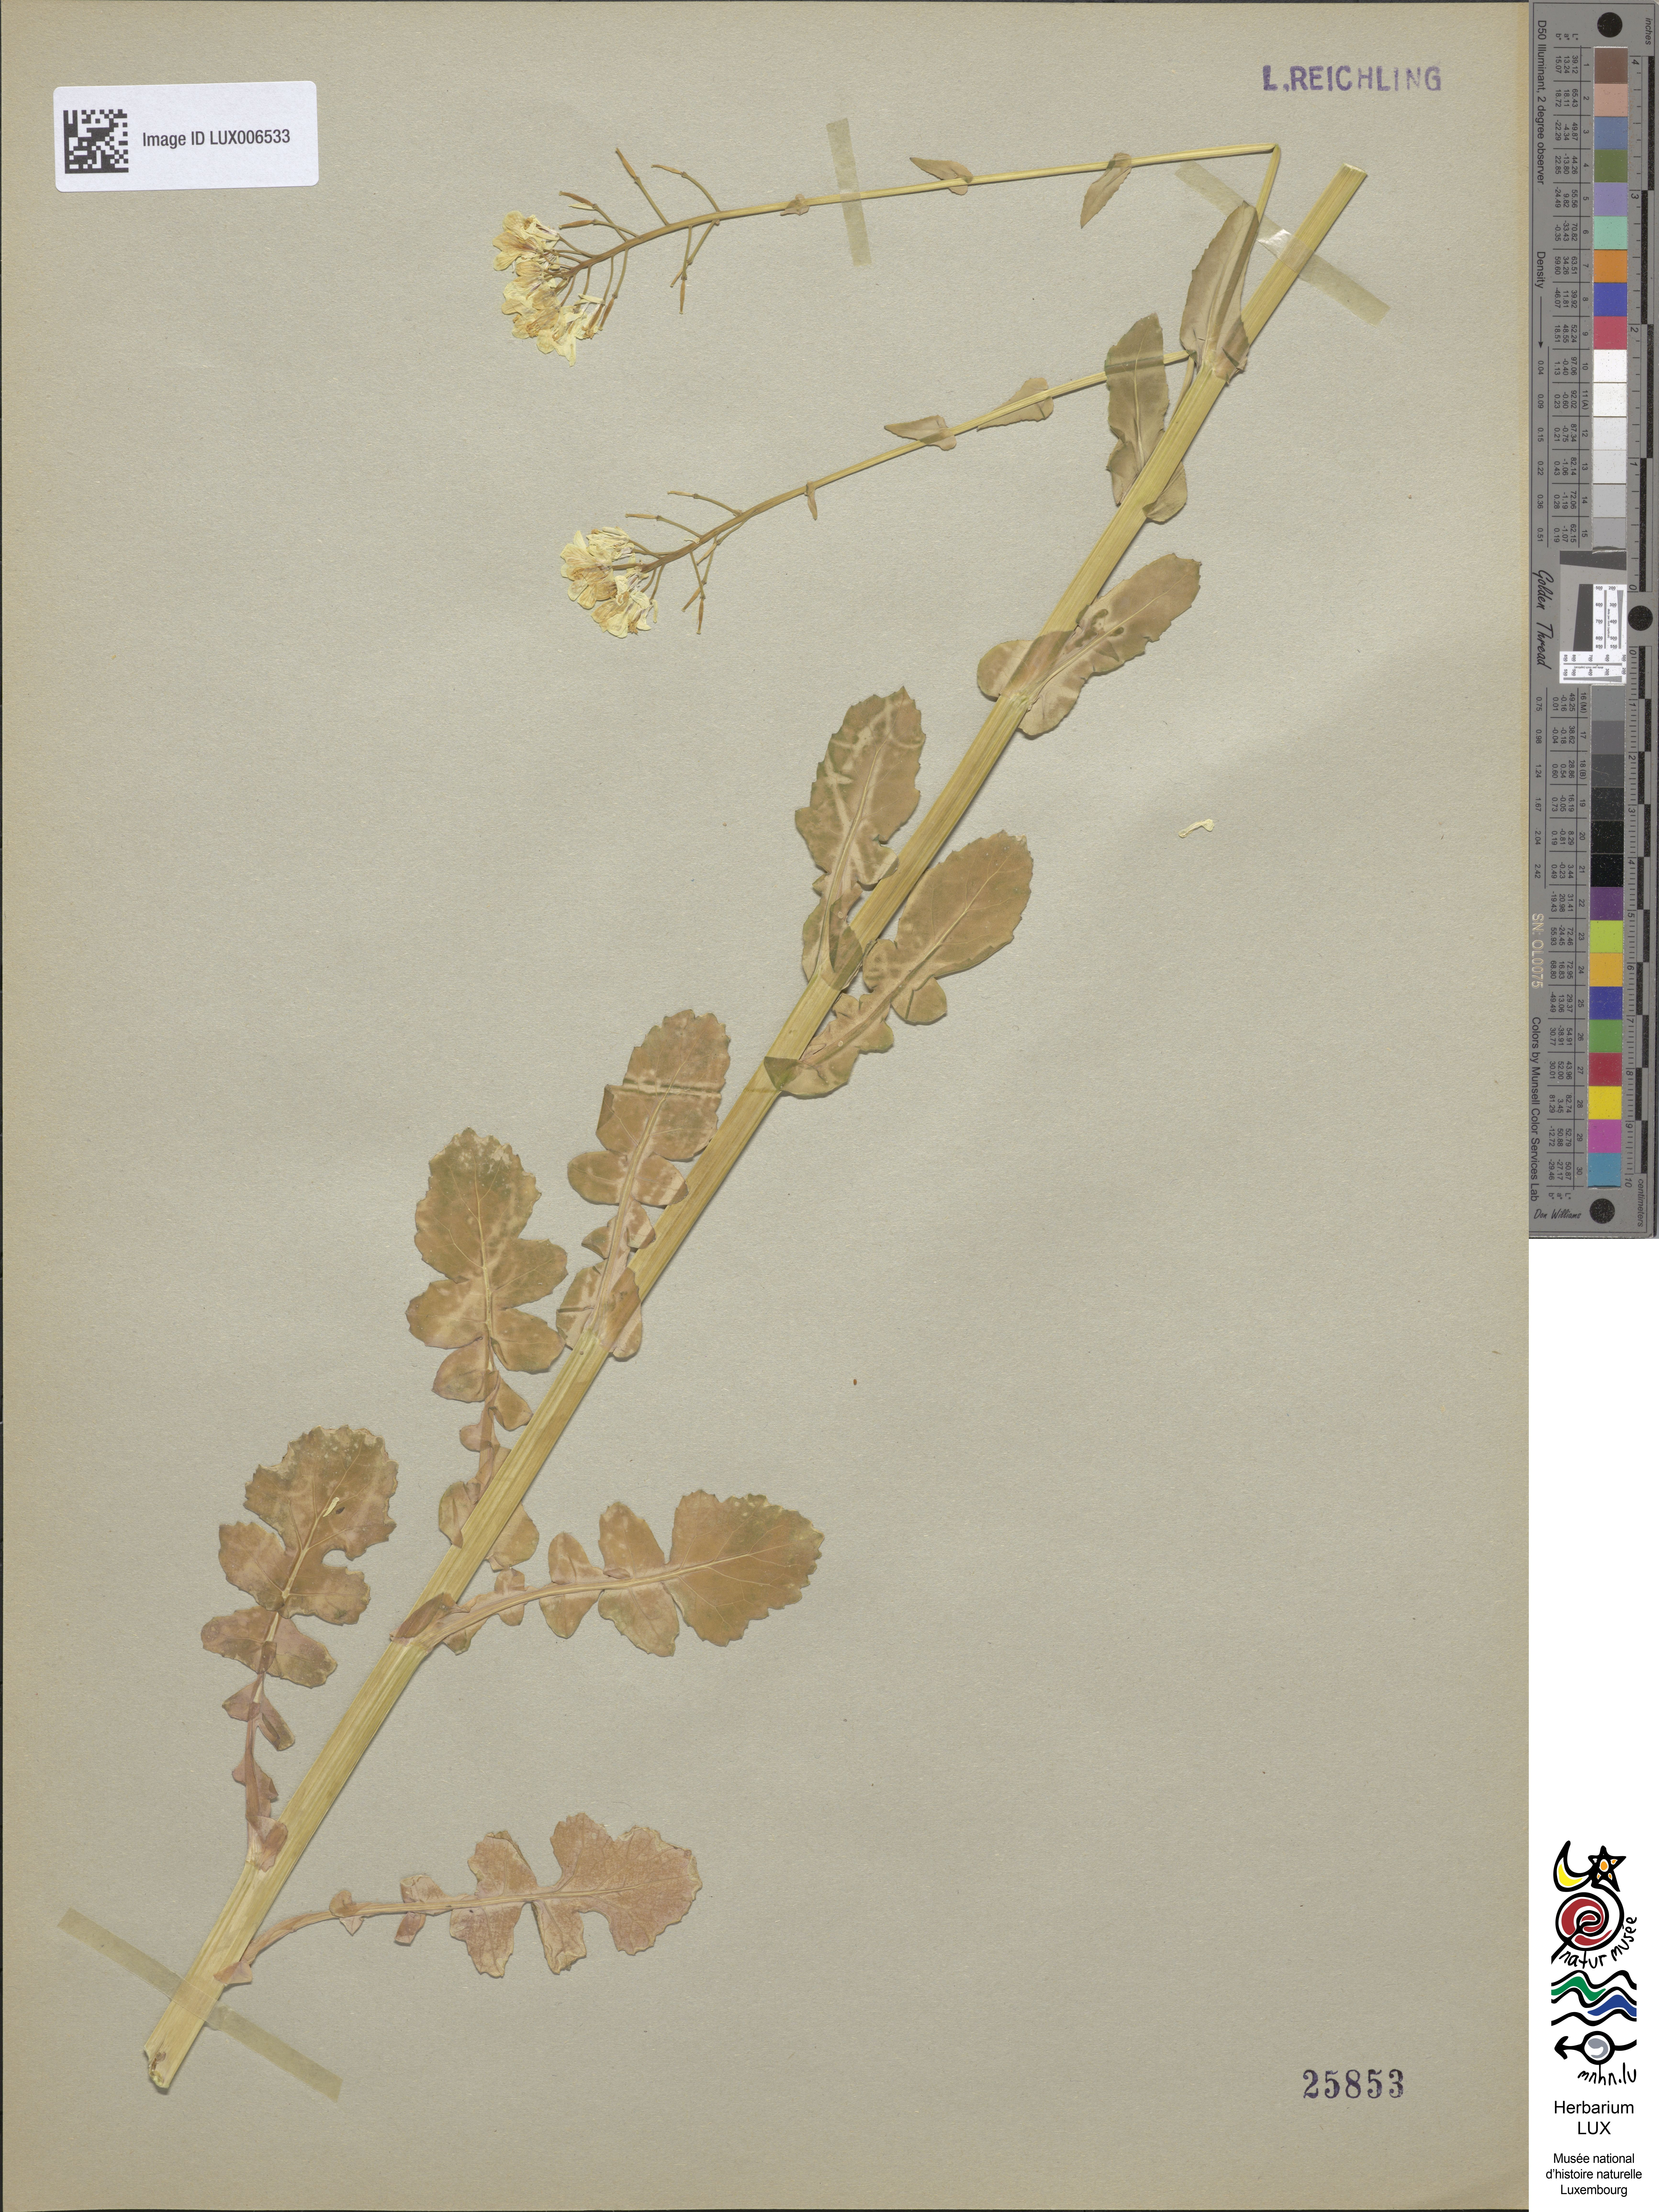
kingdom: Plantae
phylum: Tracheophyta
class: Magnoliopsida
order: Brassicales
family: Brassicaceae
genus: Brassica
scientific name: Brassica
